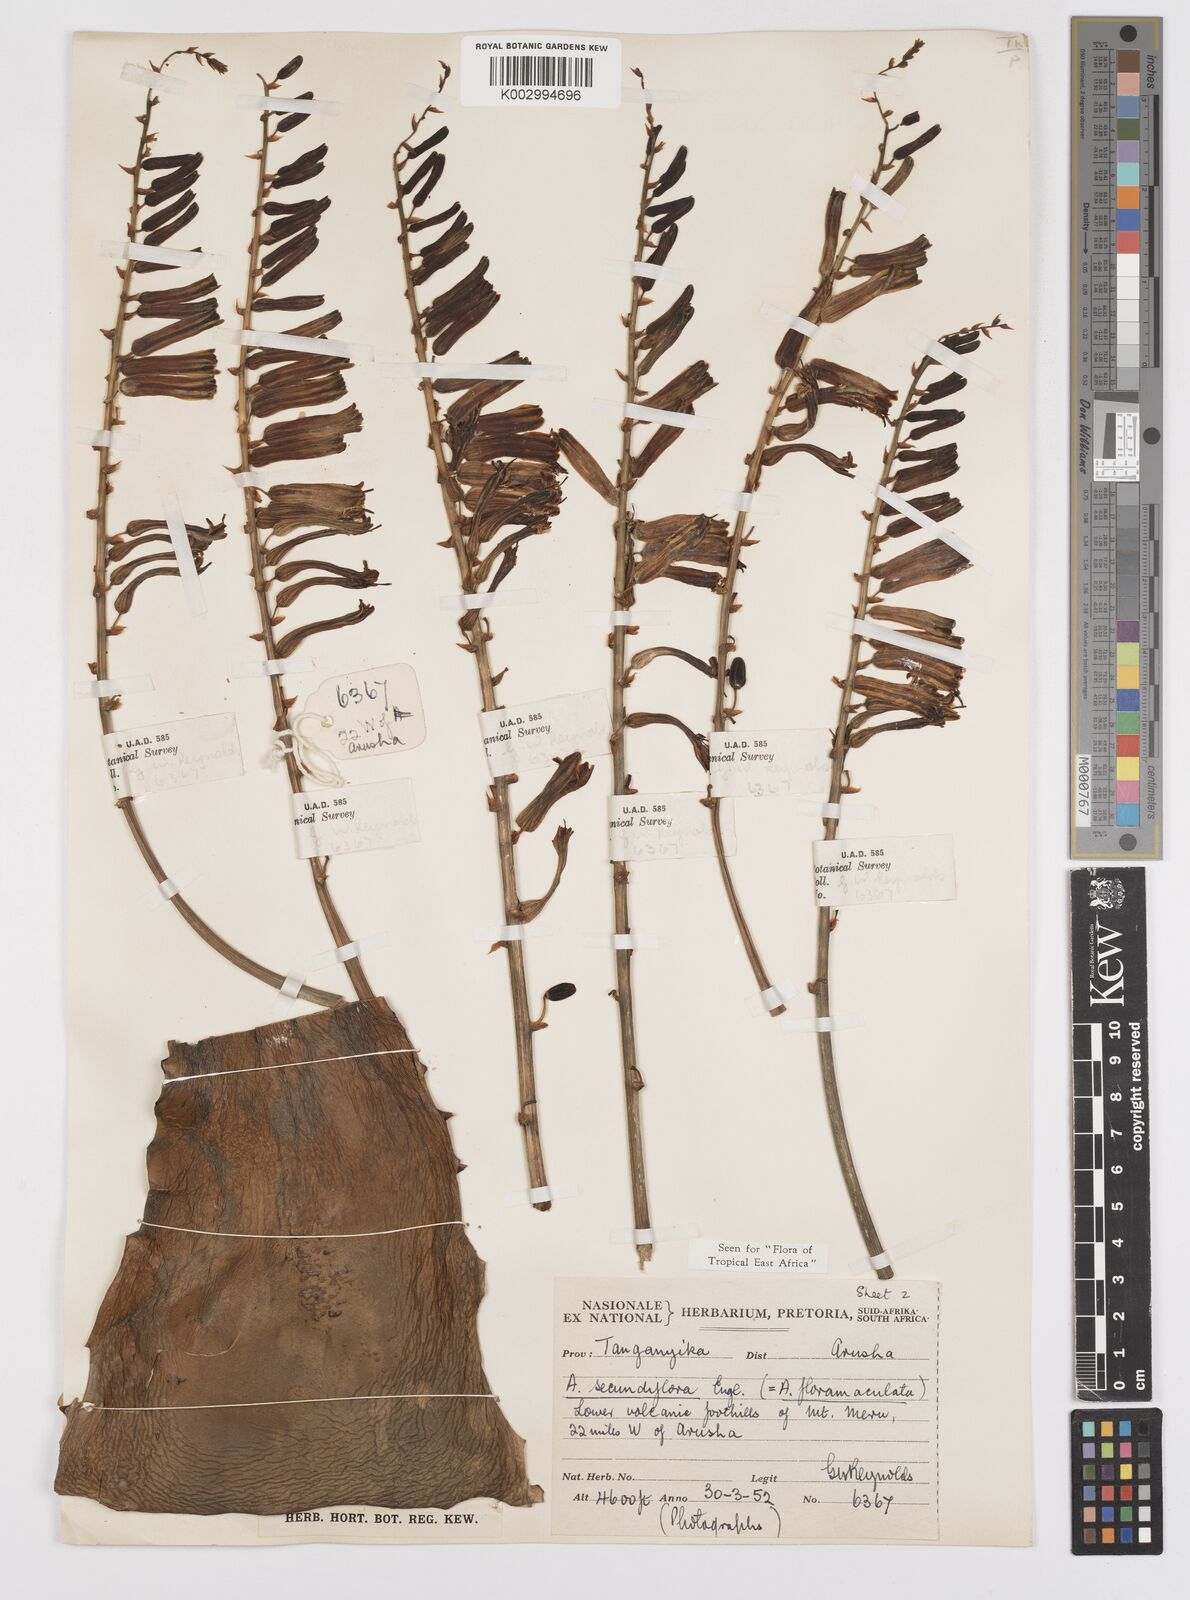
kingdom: Plantae
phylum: Tracheophyta
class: Liliopsida
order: Asparagales
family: Asphodelaceae
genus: Aloe
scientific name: Aloe secundiflora
